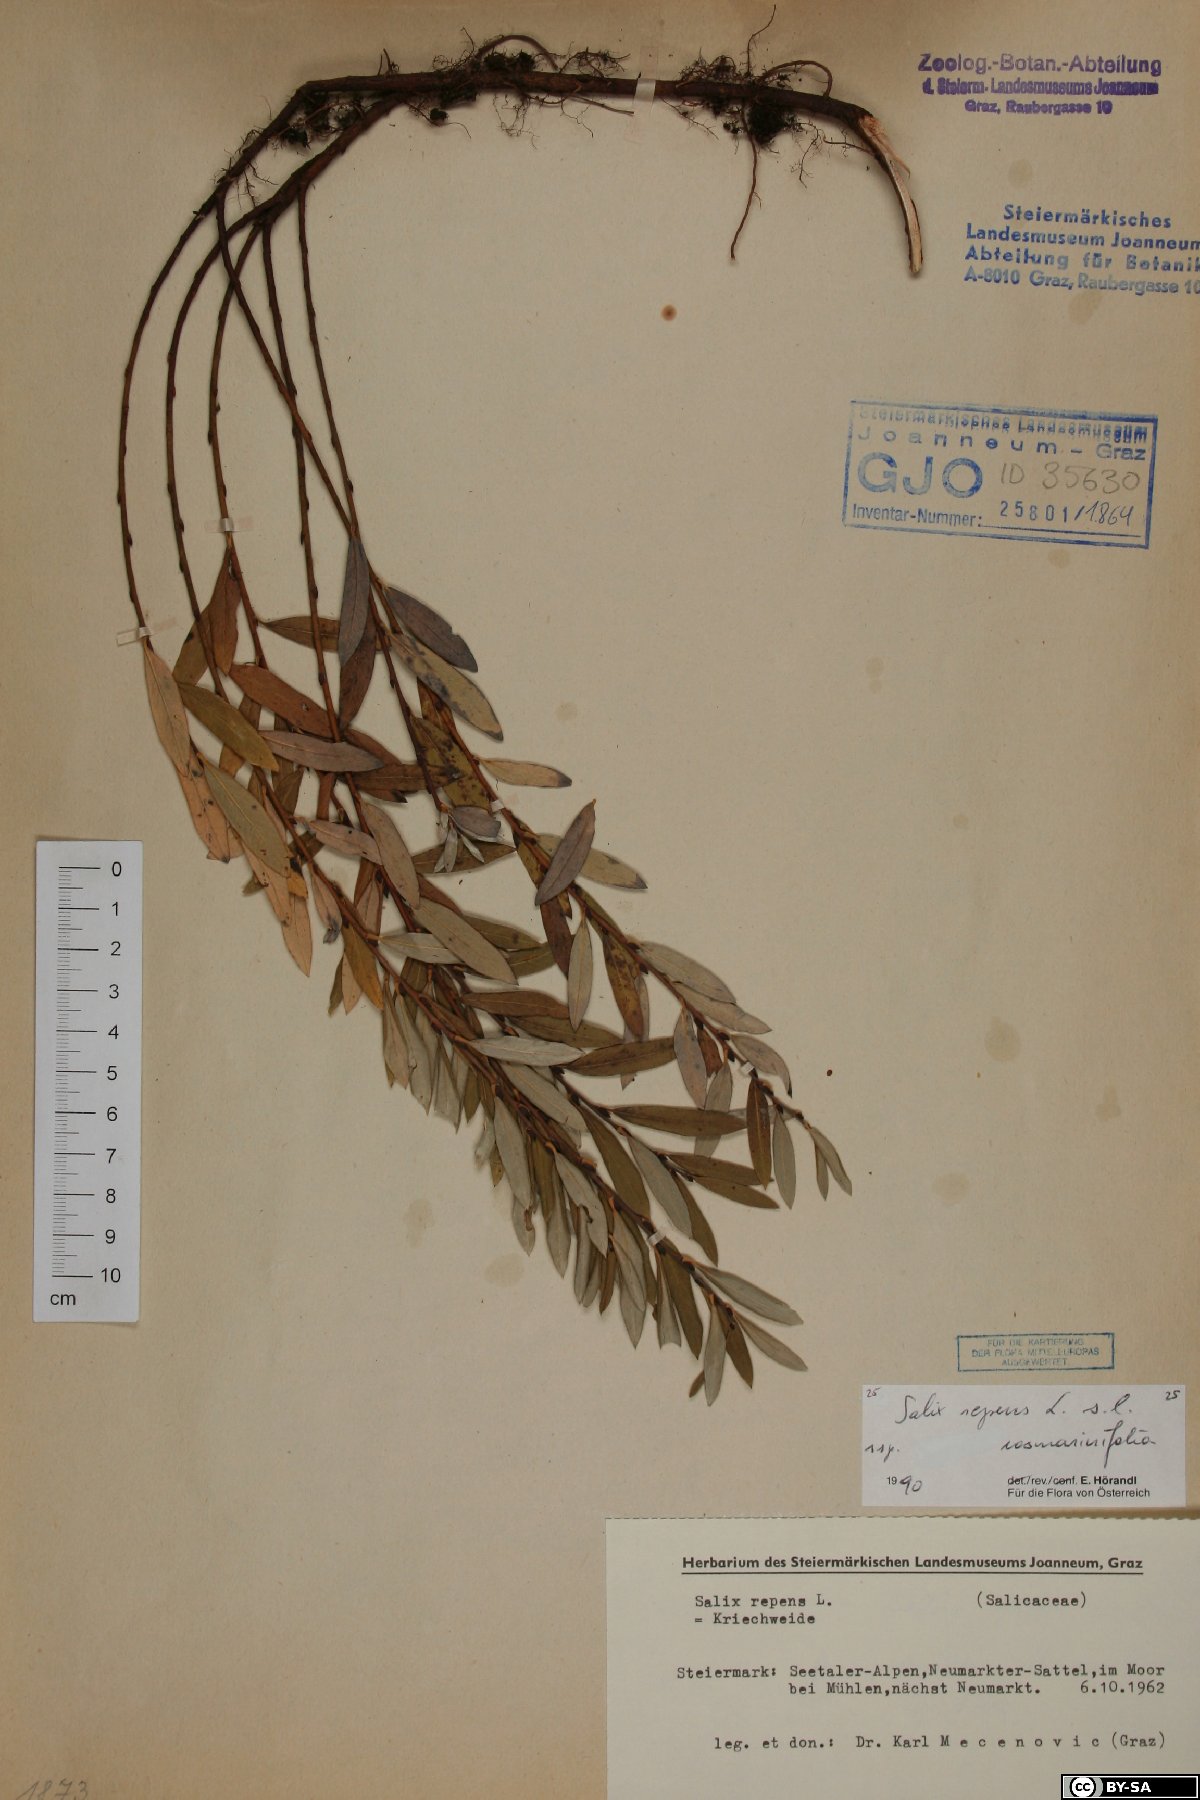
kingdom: Plantae
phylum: Tracheophyta
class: Magnoliopsida
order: Malpighiales
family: Salicaceae
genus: Salix
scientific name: Salix repens
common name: Creeping willow
